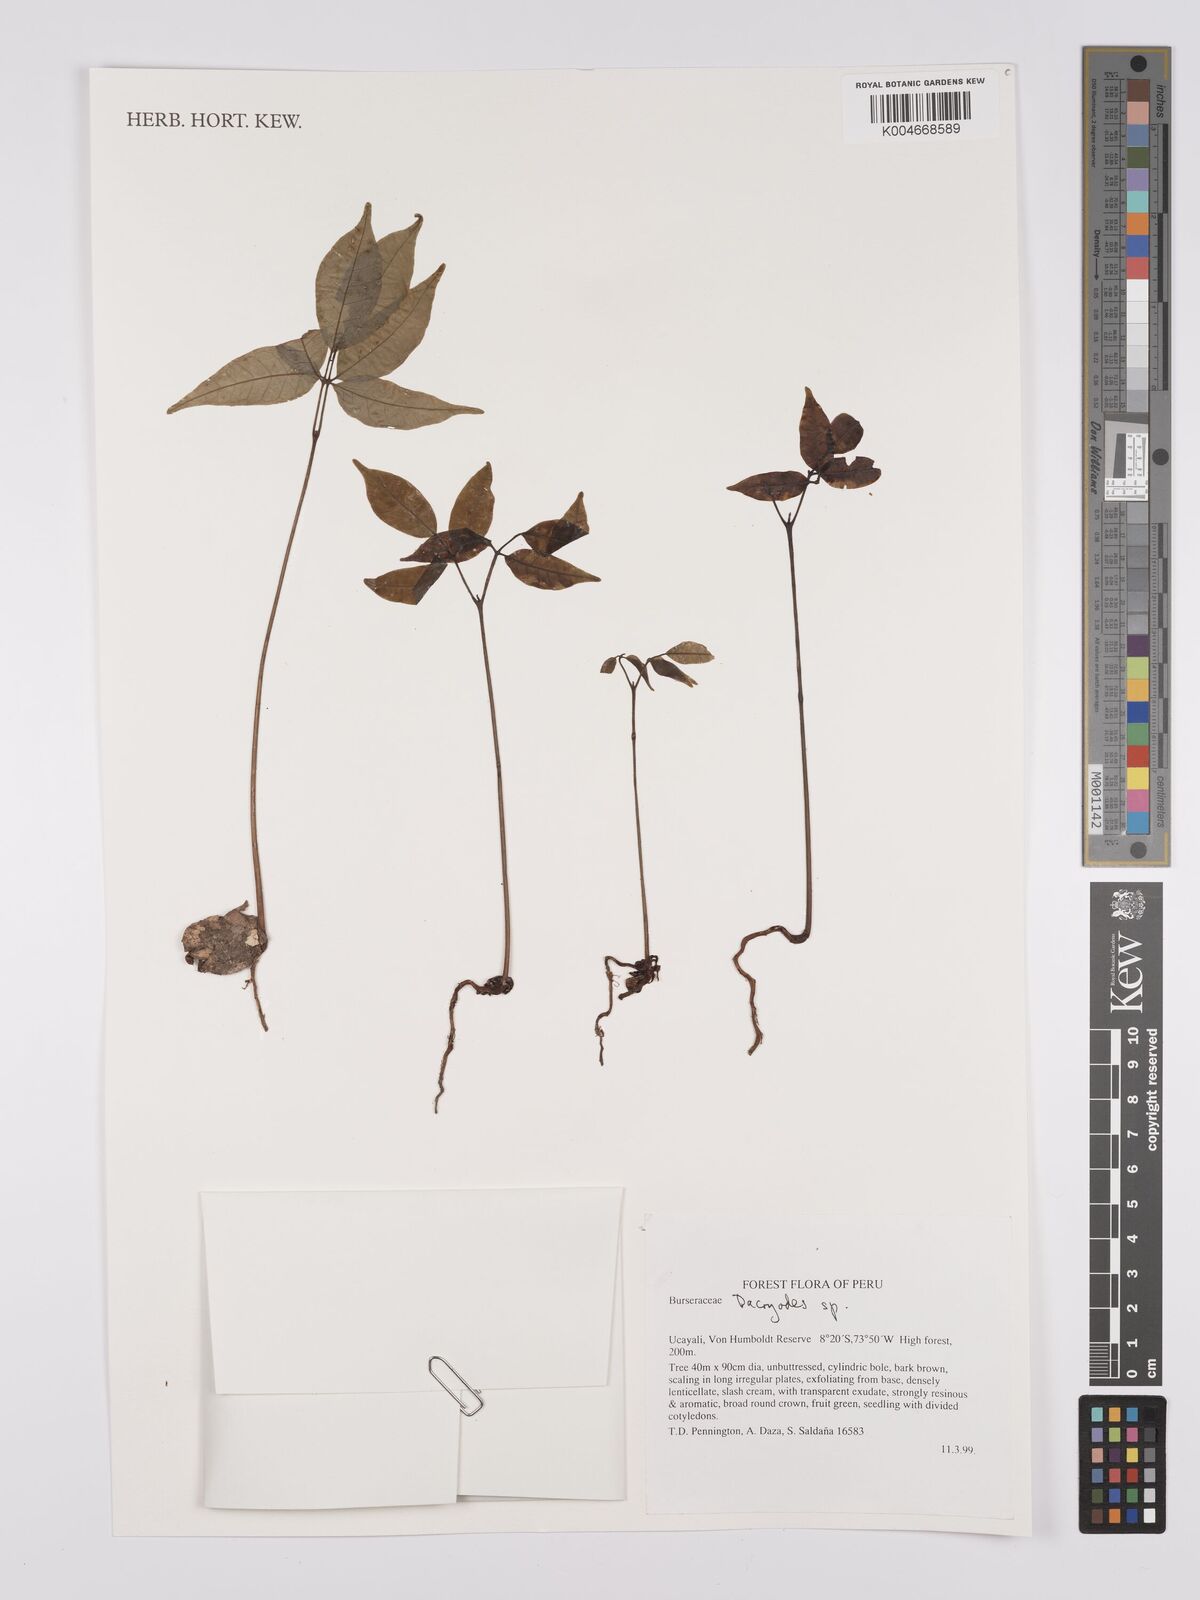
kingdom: Plantae
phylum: Tracheophyta
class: Magnoliopsida
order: Sapindales
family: Burseraceae
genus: Dacryodes
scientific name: Dacryodes
